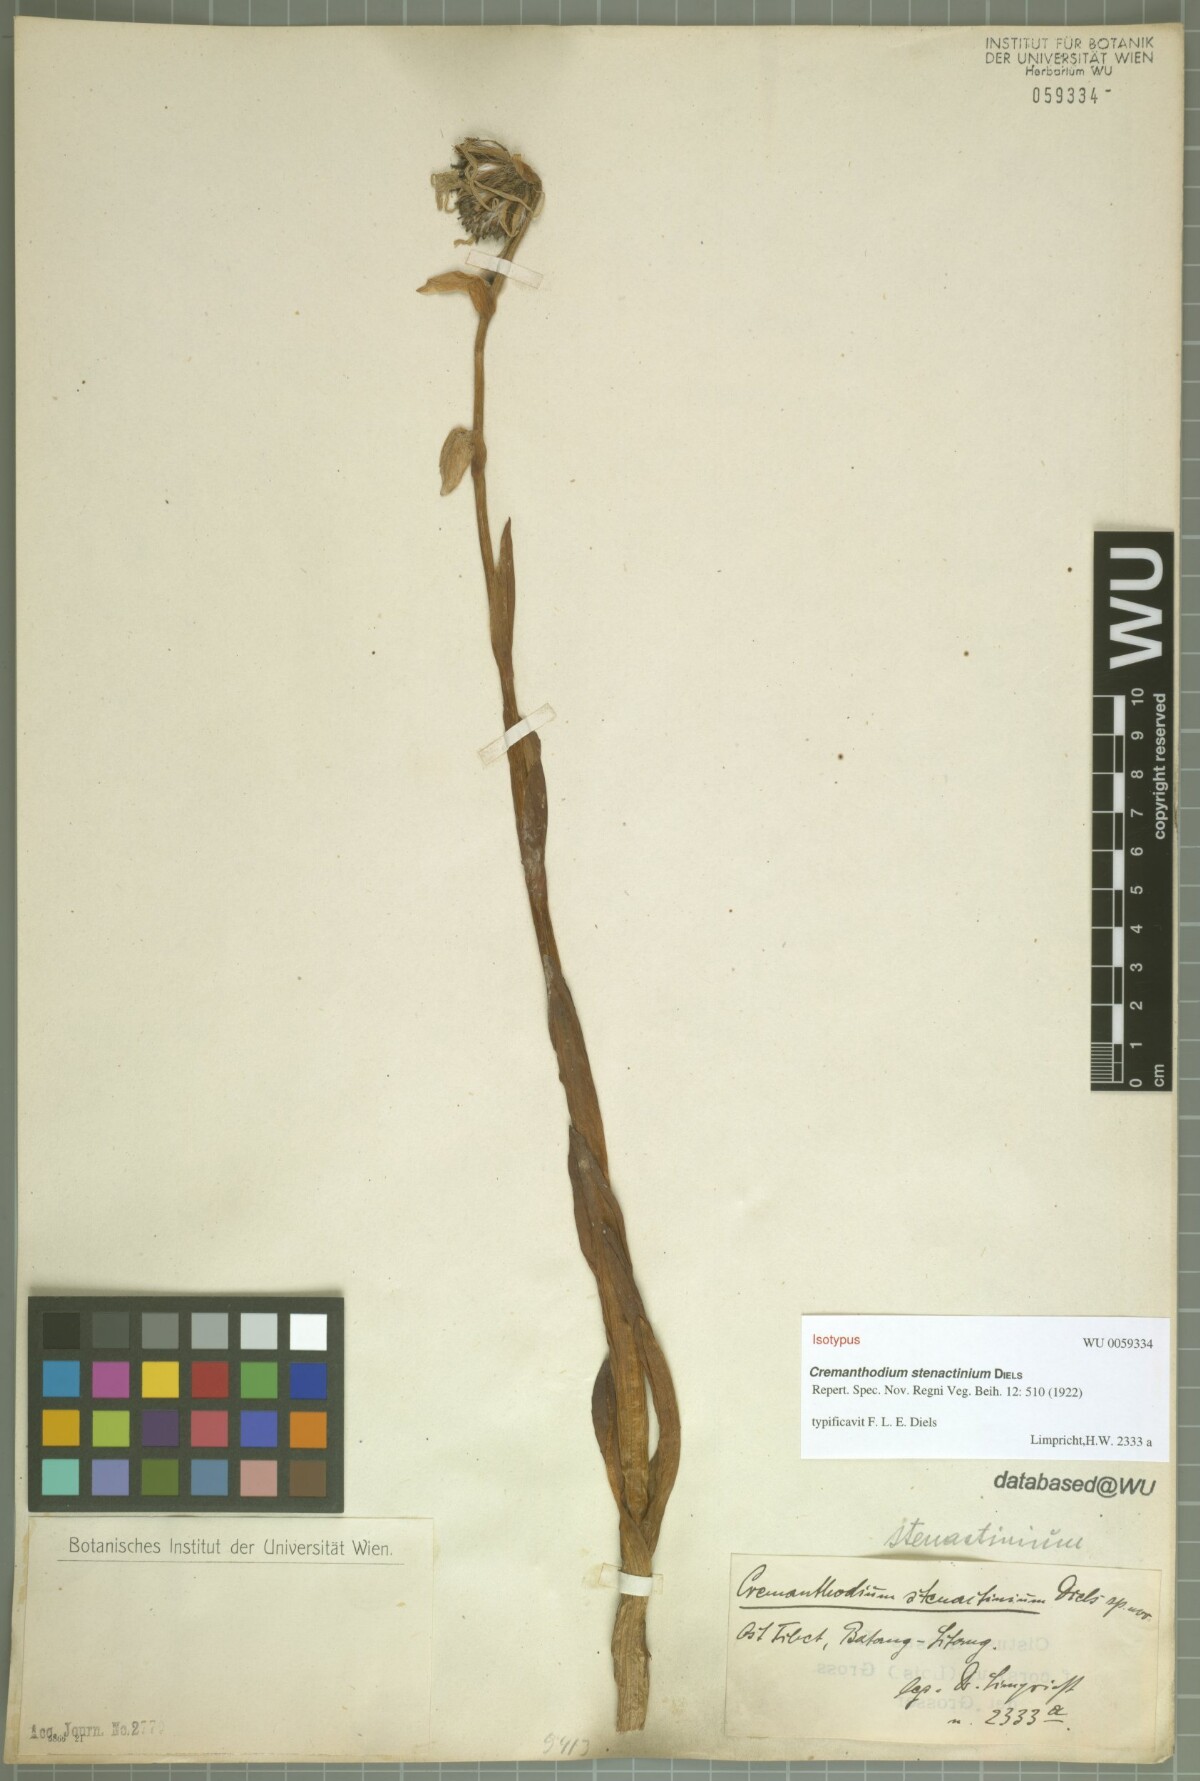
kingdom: Plantae
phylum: Tracheophyta
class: Magnoliopsida
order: Asterales
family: Asteraceae
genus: Cremanthodium
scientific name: Cremanthodium stenactinium
